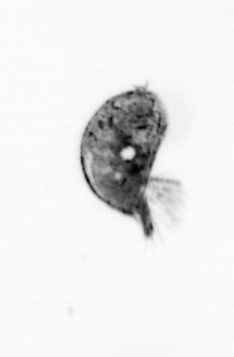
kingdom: Animalia
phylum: Arthropoda
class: Maxillopoda
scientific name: Maxillopoda
